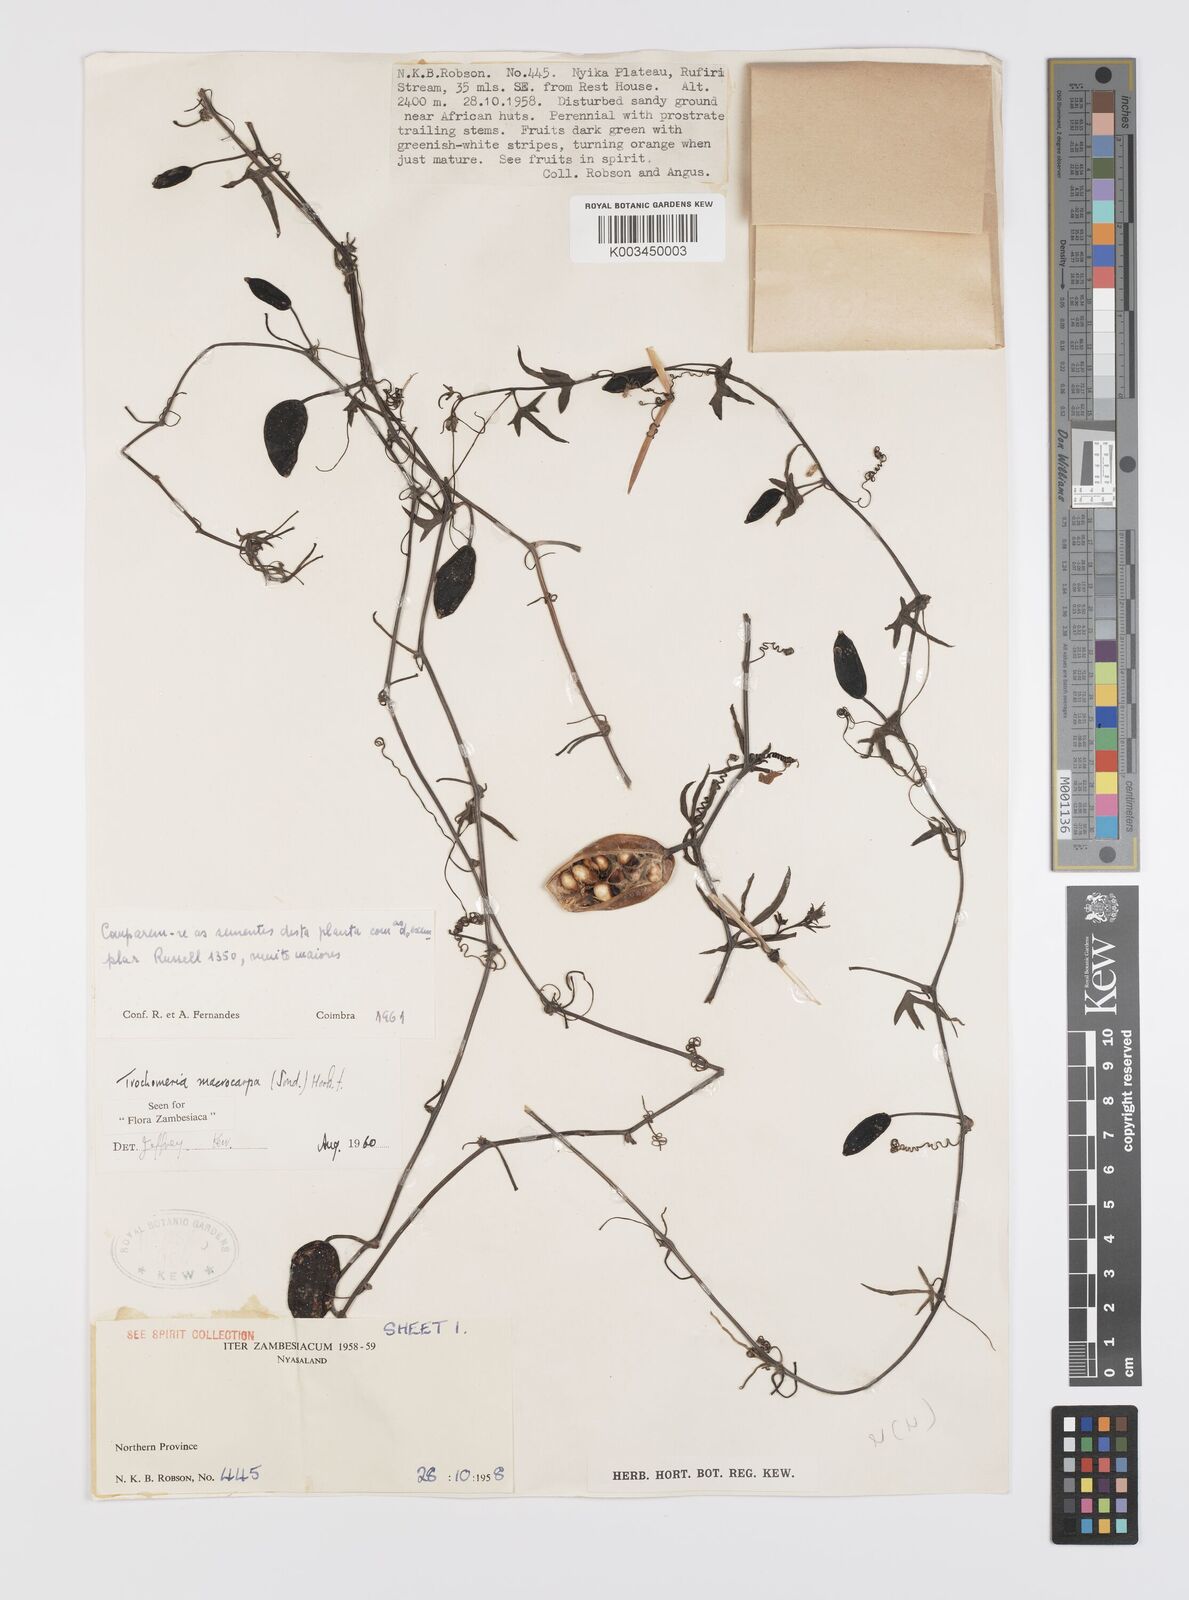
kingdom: Plantae
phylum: Tracheophyta
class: Magnoliopsida
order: Cucurbitales
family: Cucurbitaceae
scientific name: Cucurbitaceae
